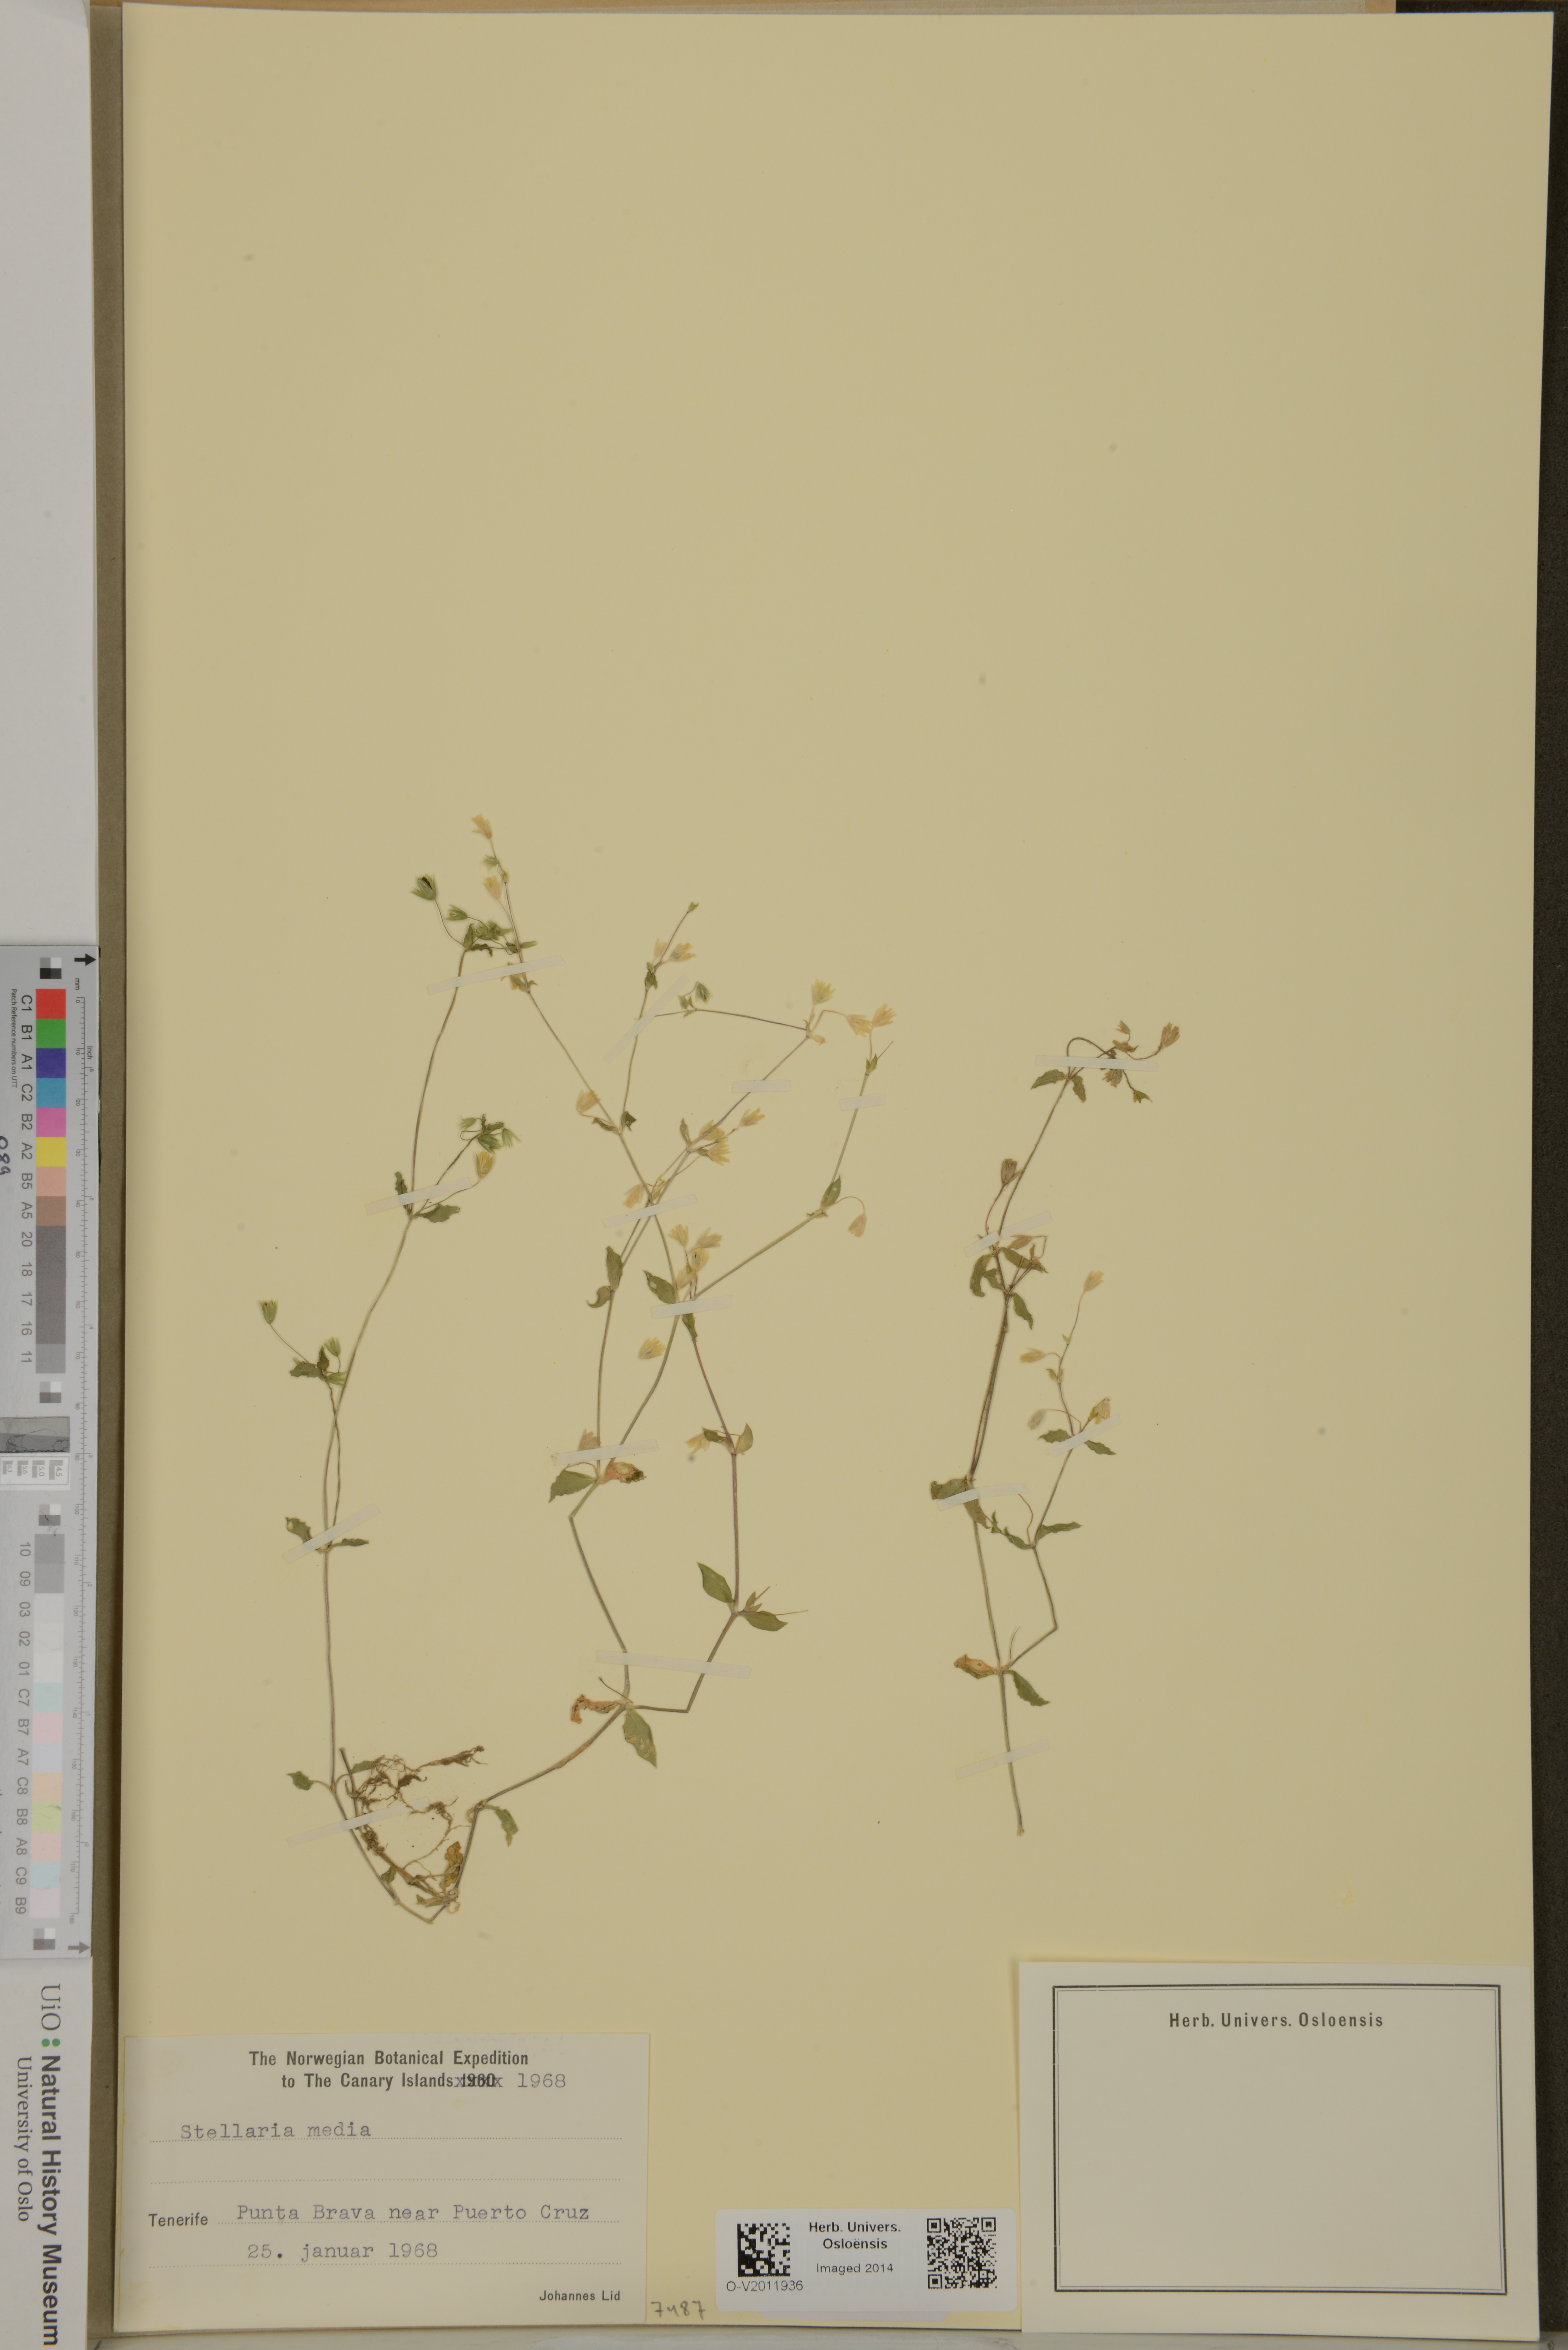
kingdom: Plantae
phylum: Tracheophyta
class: Magnoliopsida
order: Caryophyllales
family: Caryophyllaceae
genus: Stellaria
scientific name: Stellaria media
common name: Common chickweed
